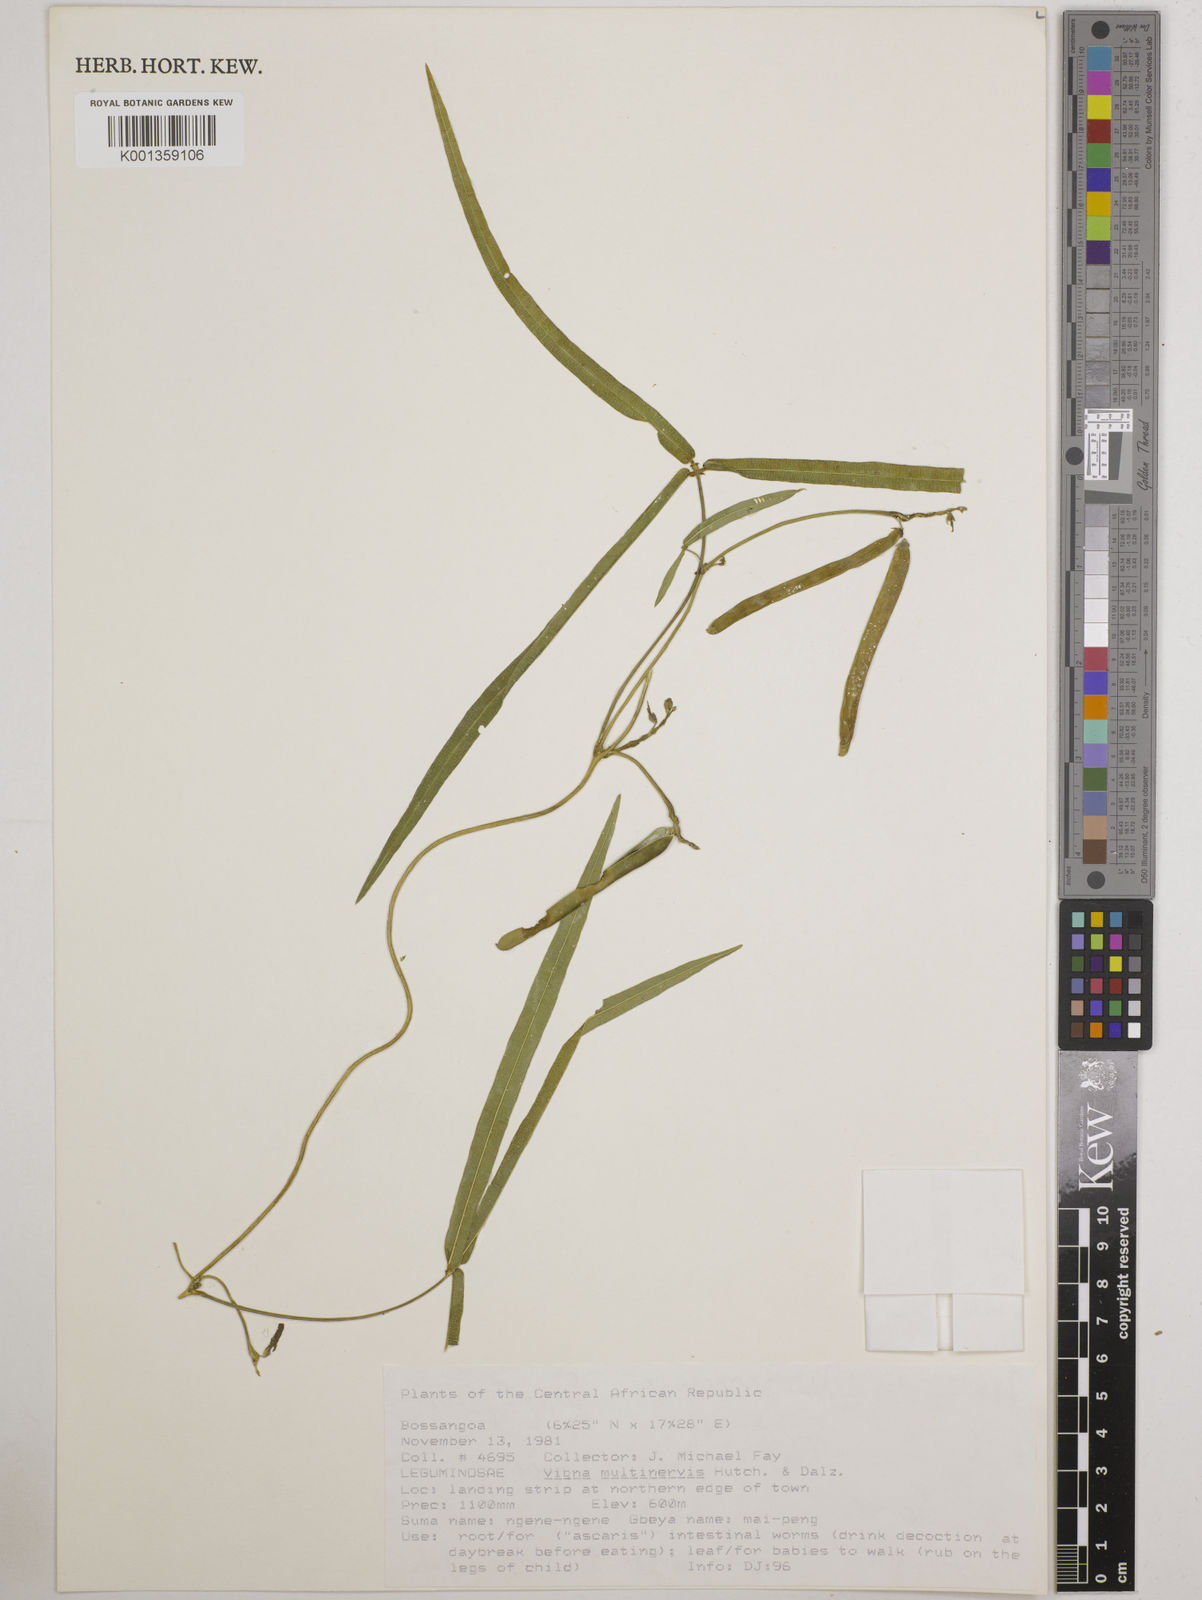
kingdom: Plantae
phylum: Tracheophyta
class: Magnoliopsida
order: Fabales
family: Fabaceae
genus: Vigna
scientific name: Vigna multinervis
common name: Fula-pulaar
